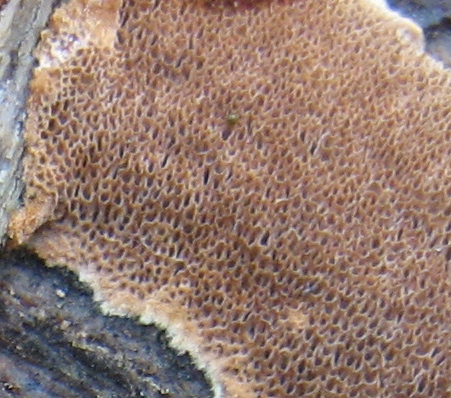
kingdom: Fungi
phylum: Basidiomycota
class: Agaricomycetes
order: Hymenochaetales
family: Hymenochaetaceae
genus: Fuscoporia
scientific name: Fuscoporia ferrea
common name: skorpe-ildporesvamp
